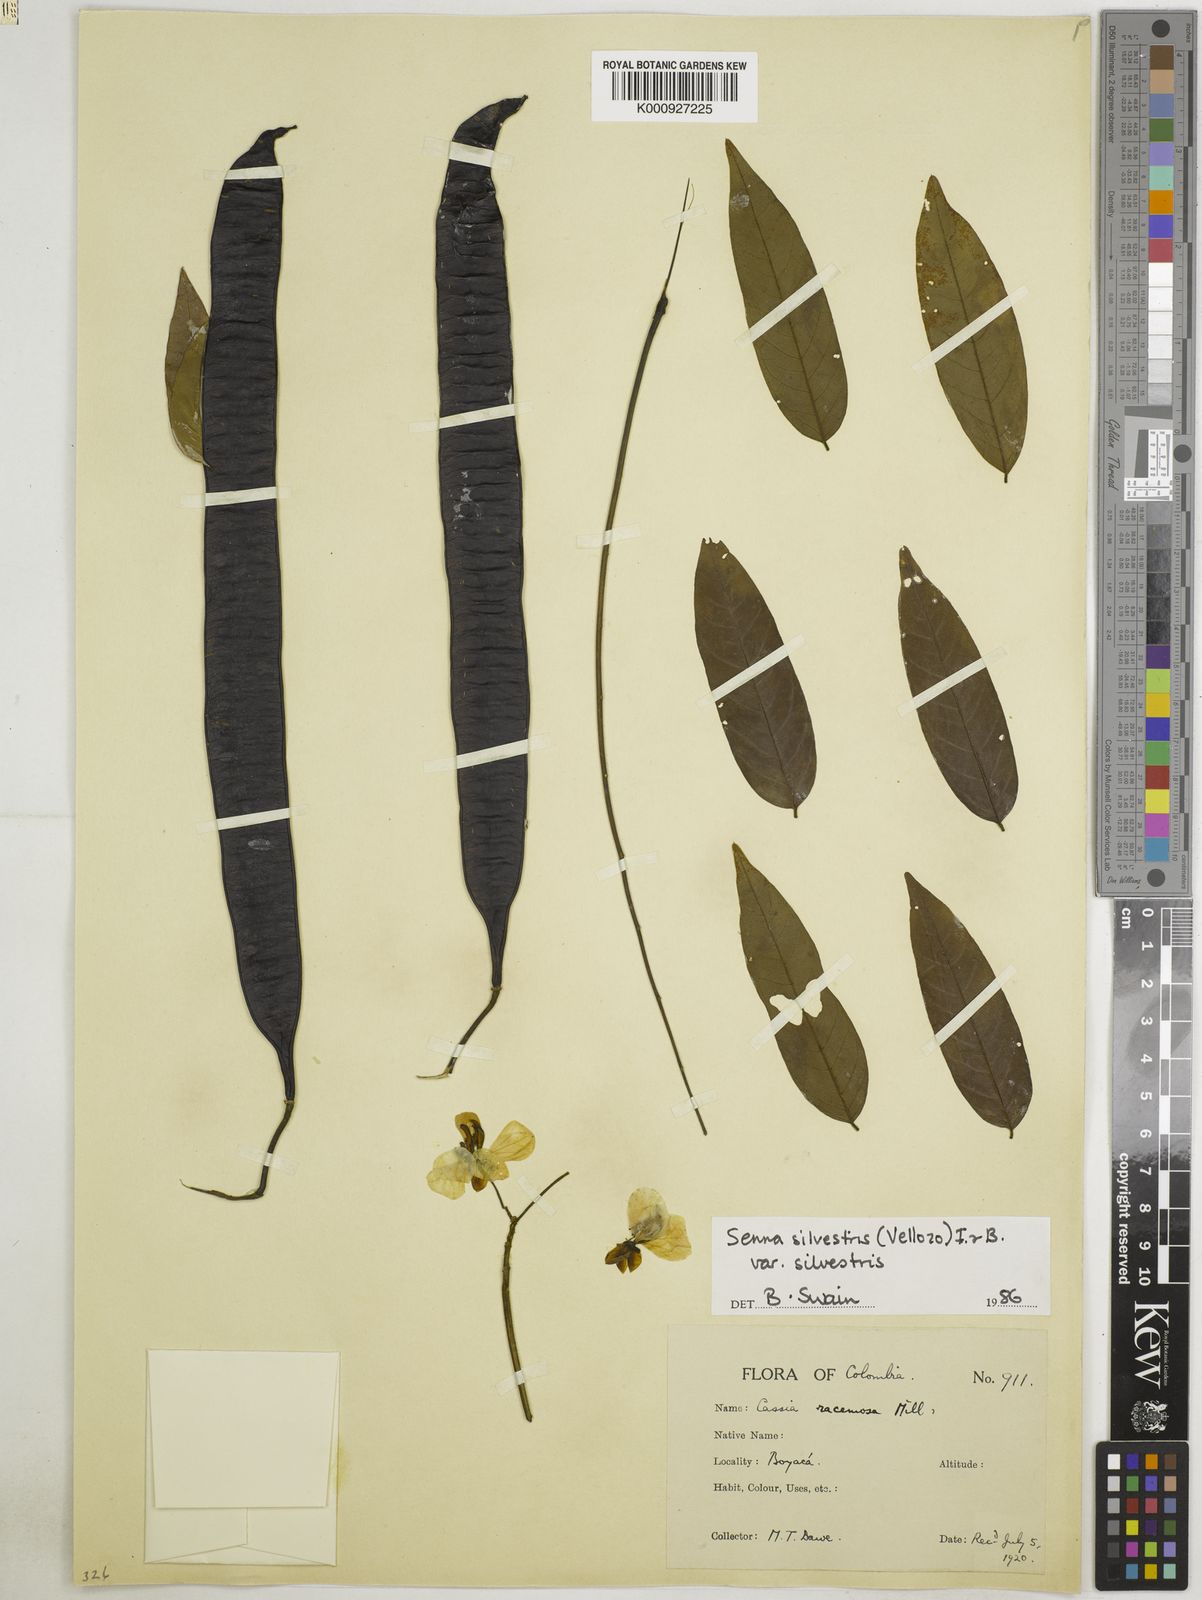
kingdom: Plantae
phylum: Tracheophyta
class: Magnoliopsida
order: Fabales
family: Fabaceae
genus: Senna
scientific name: Senna silvestris
